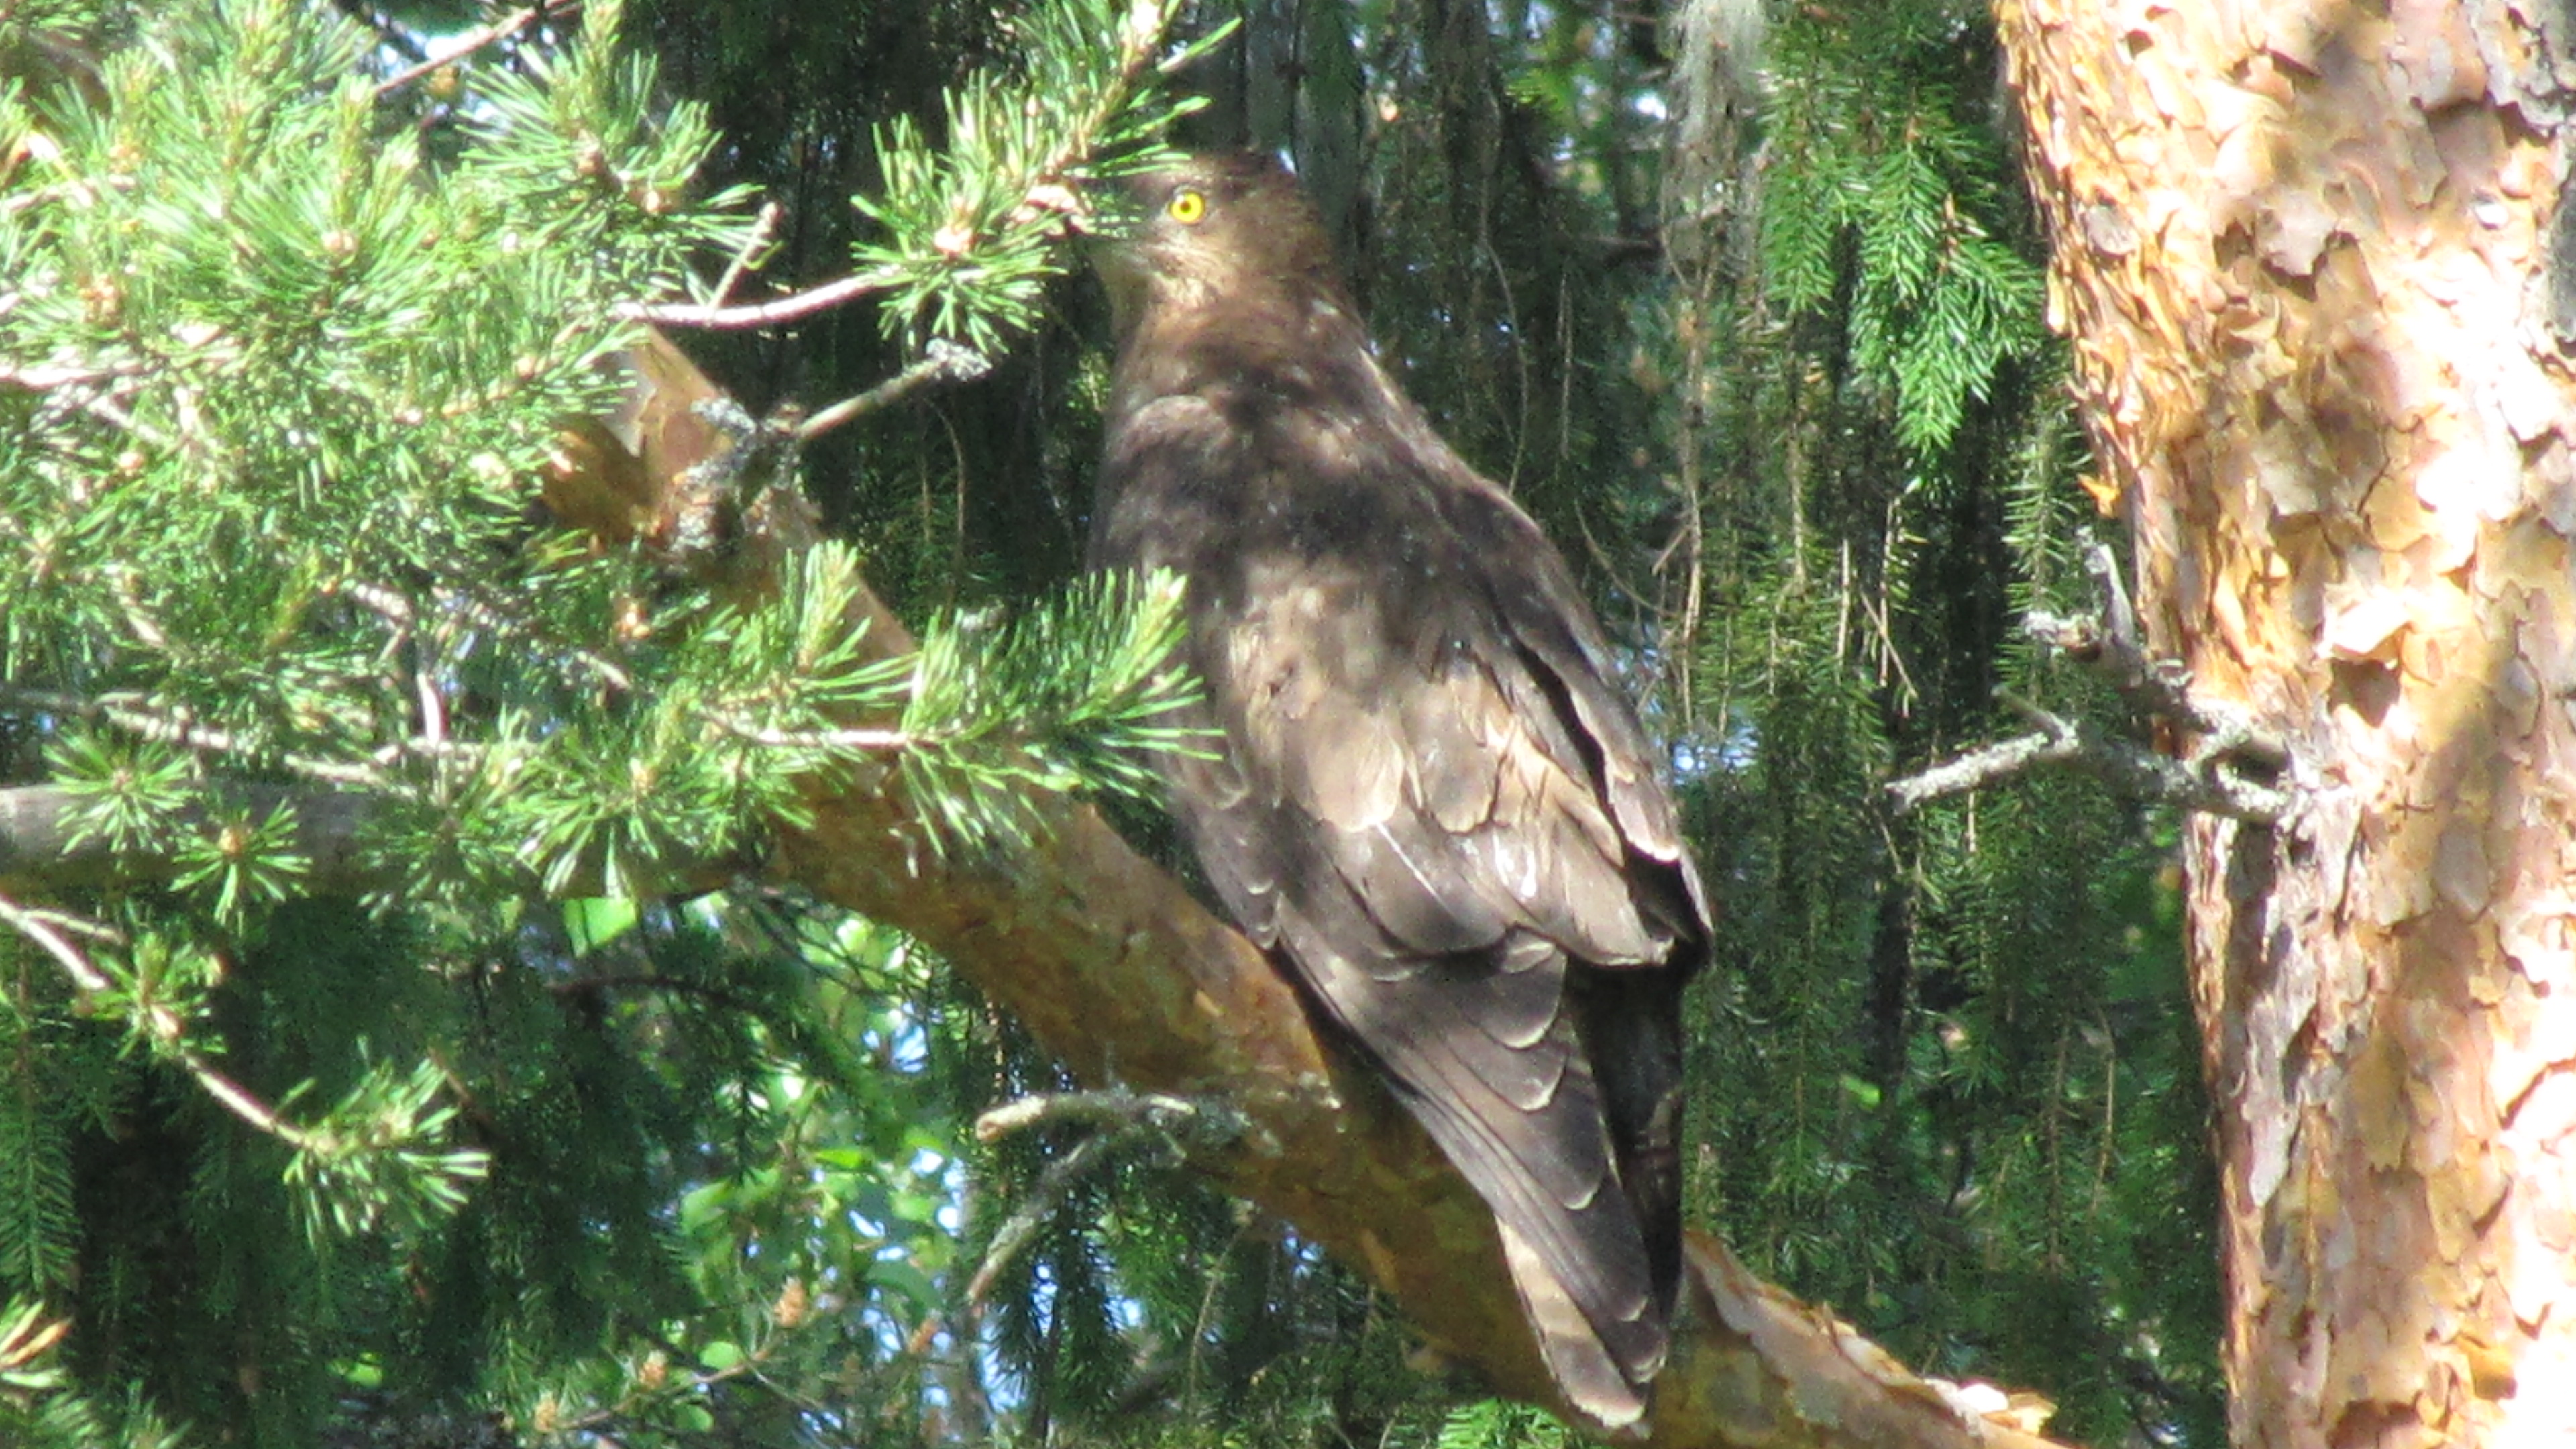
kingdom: Animalia
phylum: Chordata
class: Aves
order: Accipitriformes
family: Accipitridae
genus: Pernis
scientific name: Pernis apivorus
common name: European honey buzzard
